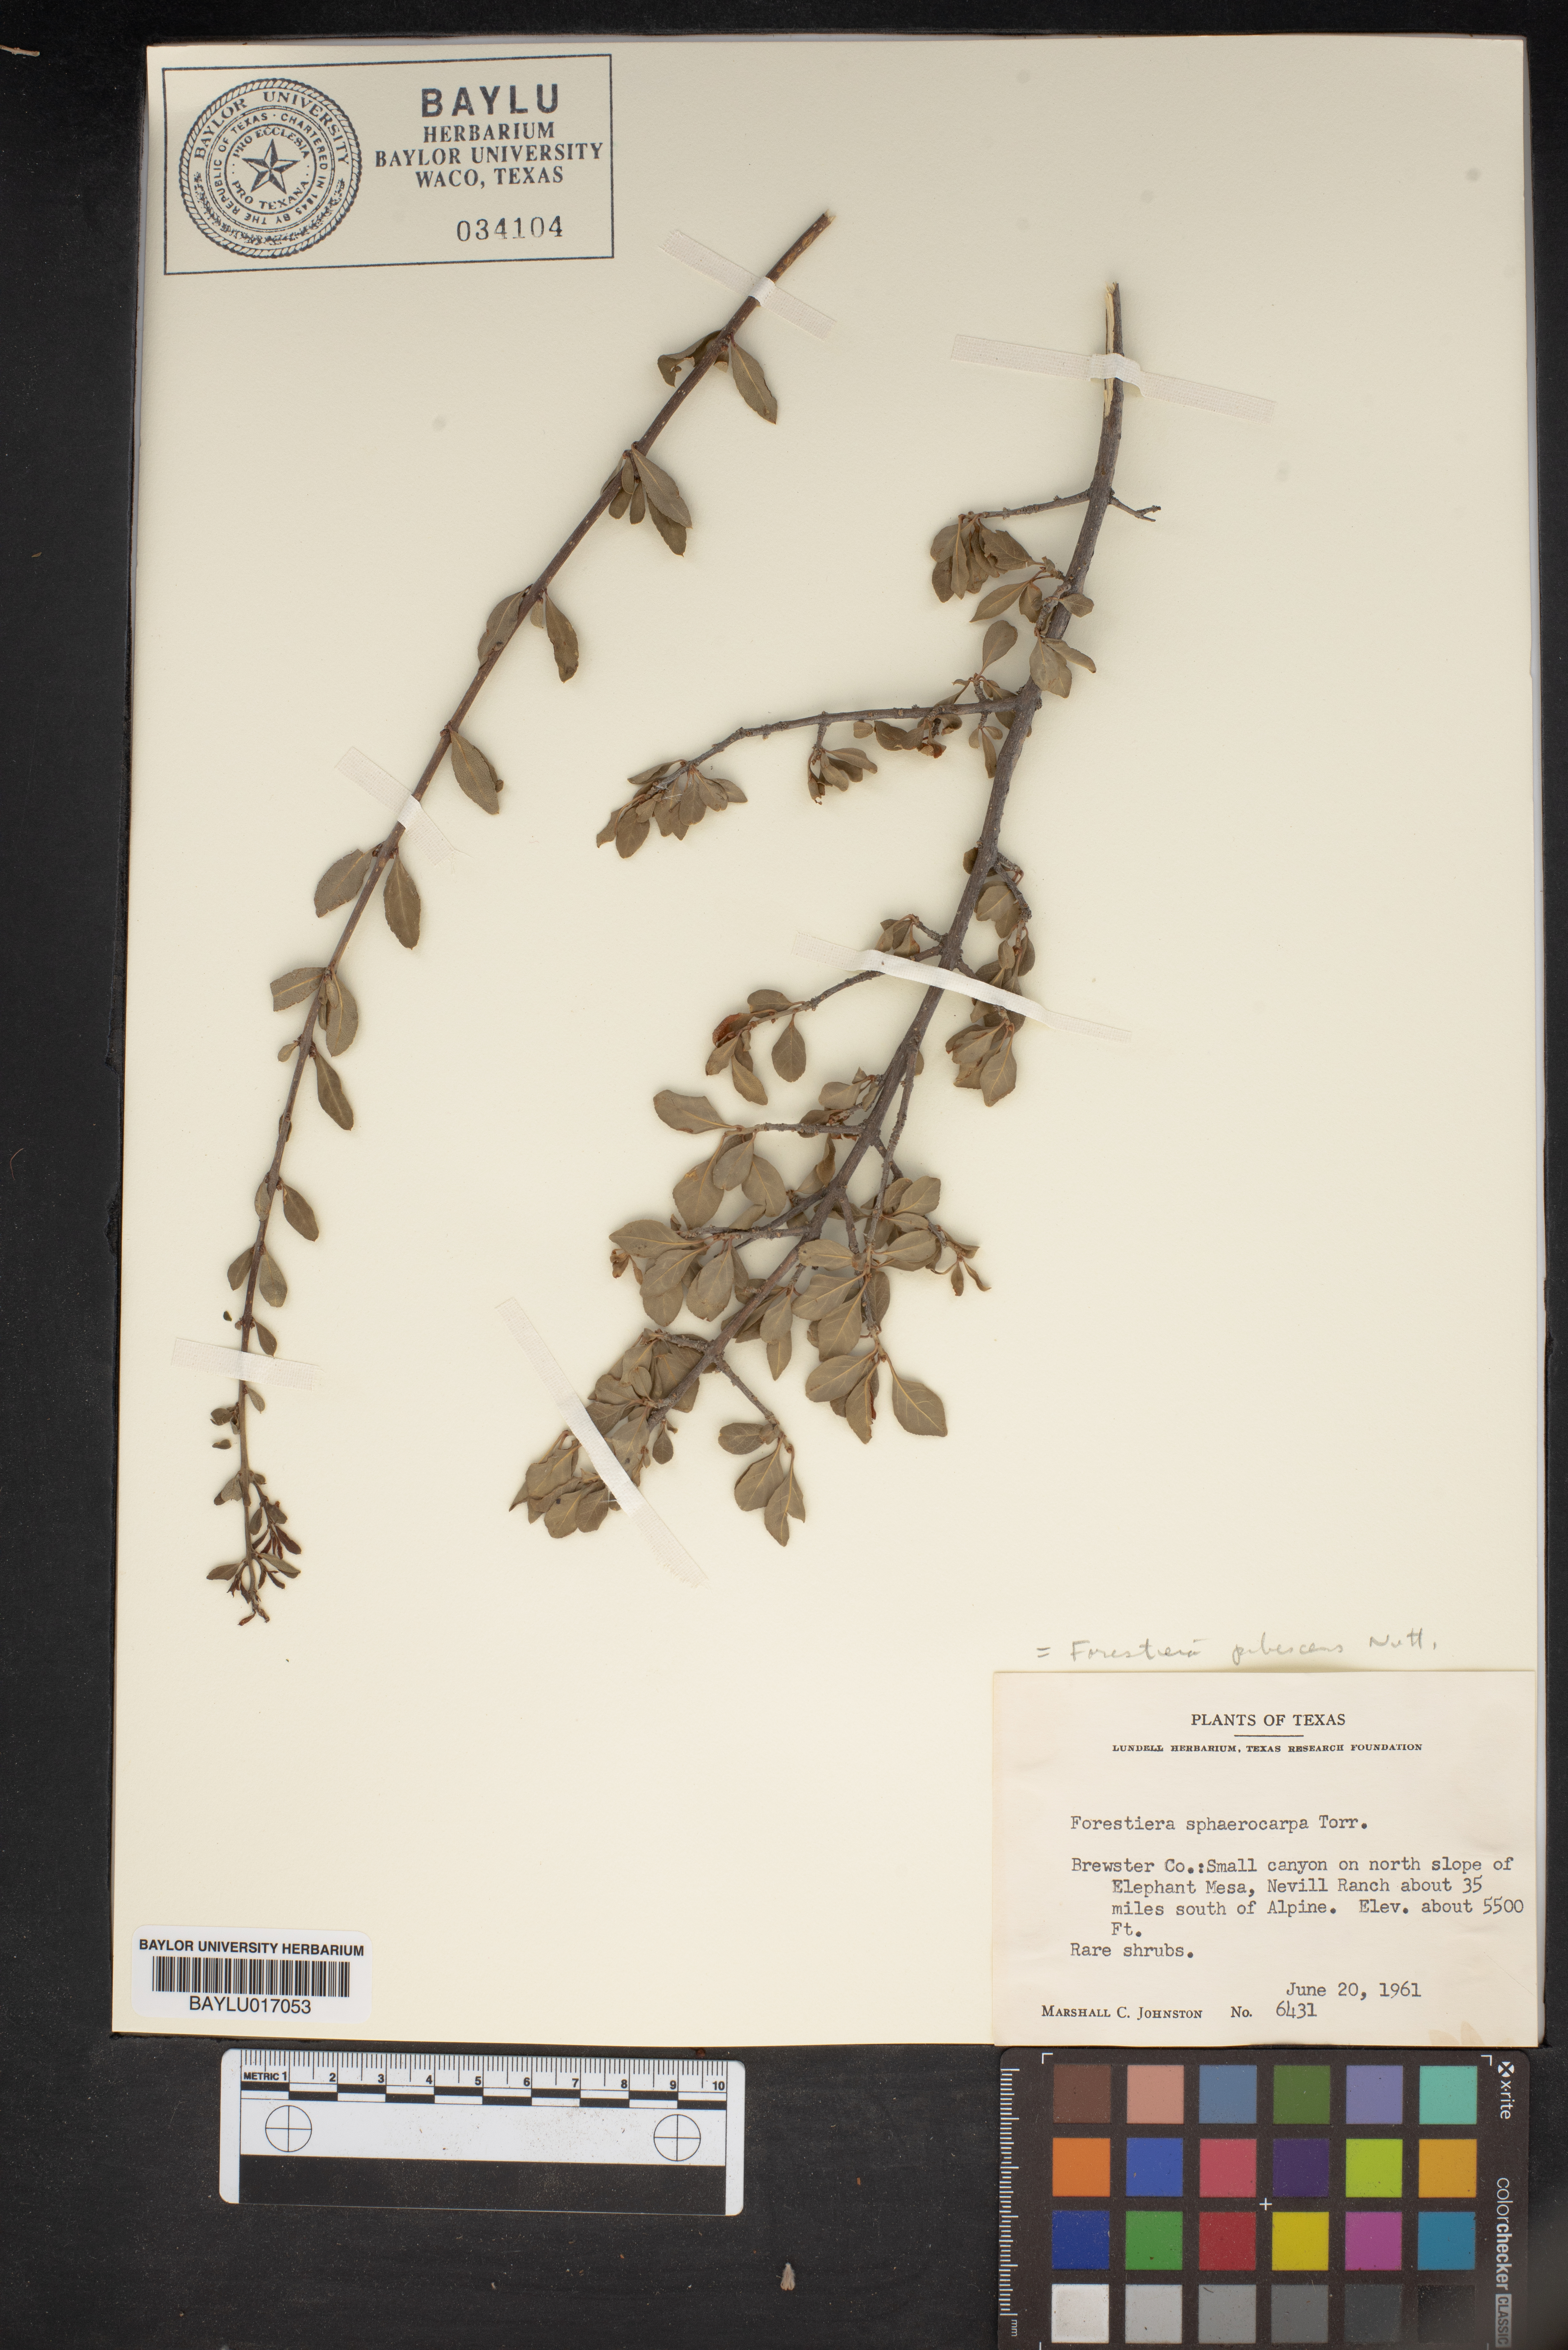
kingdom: Plantae
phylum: Tracheophyta
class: Magnoliopsida
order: Lamiales
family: Oleaceae
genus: Forestiera
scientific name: Forestiera pubescens
